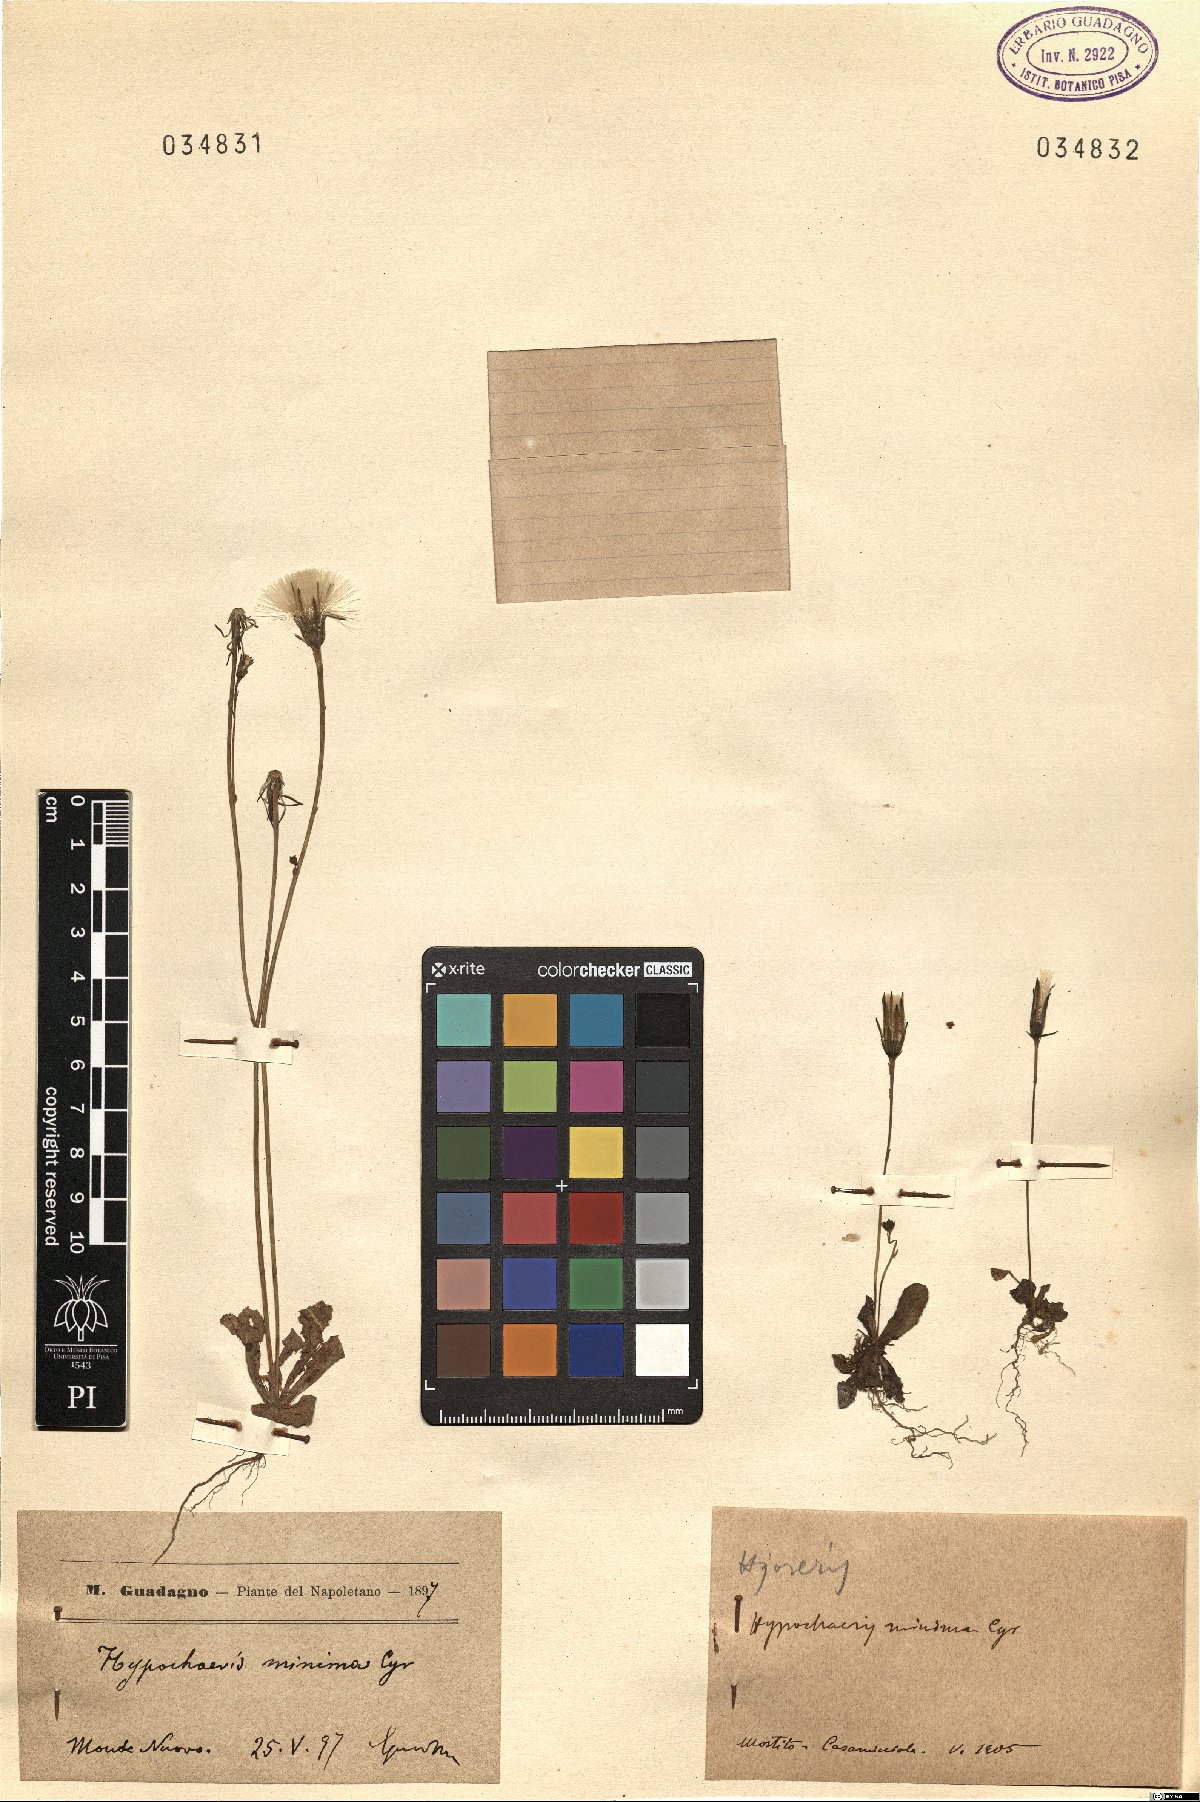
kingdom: Plantae
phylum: Tracheophyta
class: Magnoliopsida
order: Asterales
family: Asteraceae
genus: Hypochaeris
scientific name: Hypochaeris arachnoides
